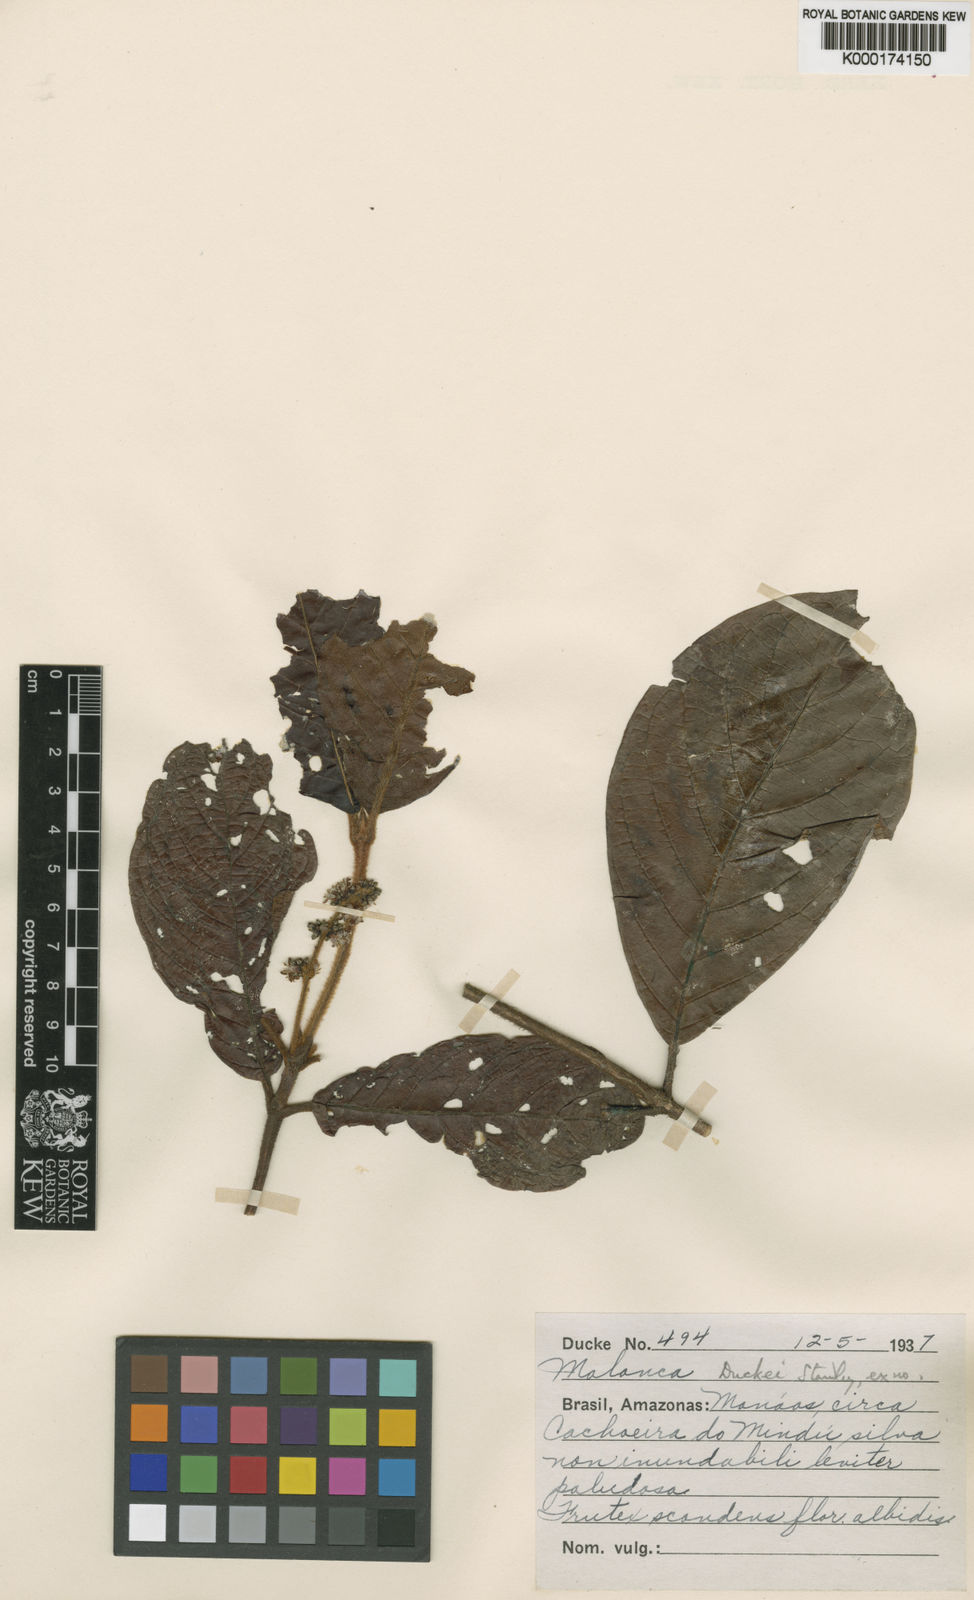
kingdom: Plantae
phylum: Tracheophyta
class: Magnoliopsida
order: Gentianales
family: Rubiaceae
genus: Malanea
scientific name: Malanea duckei
